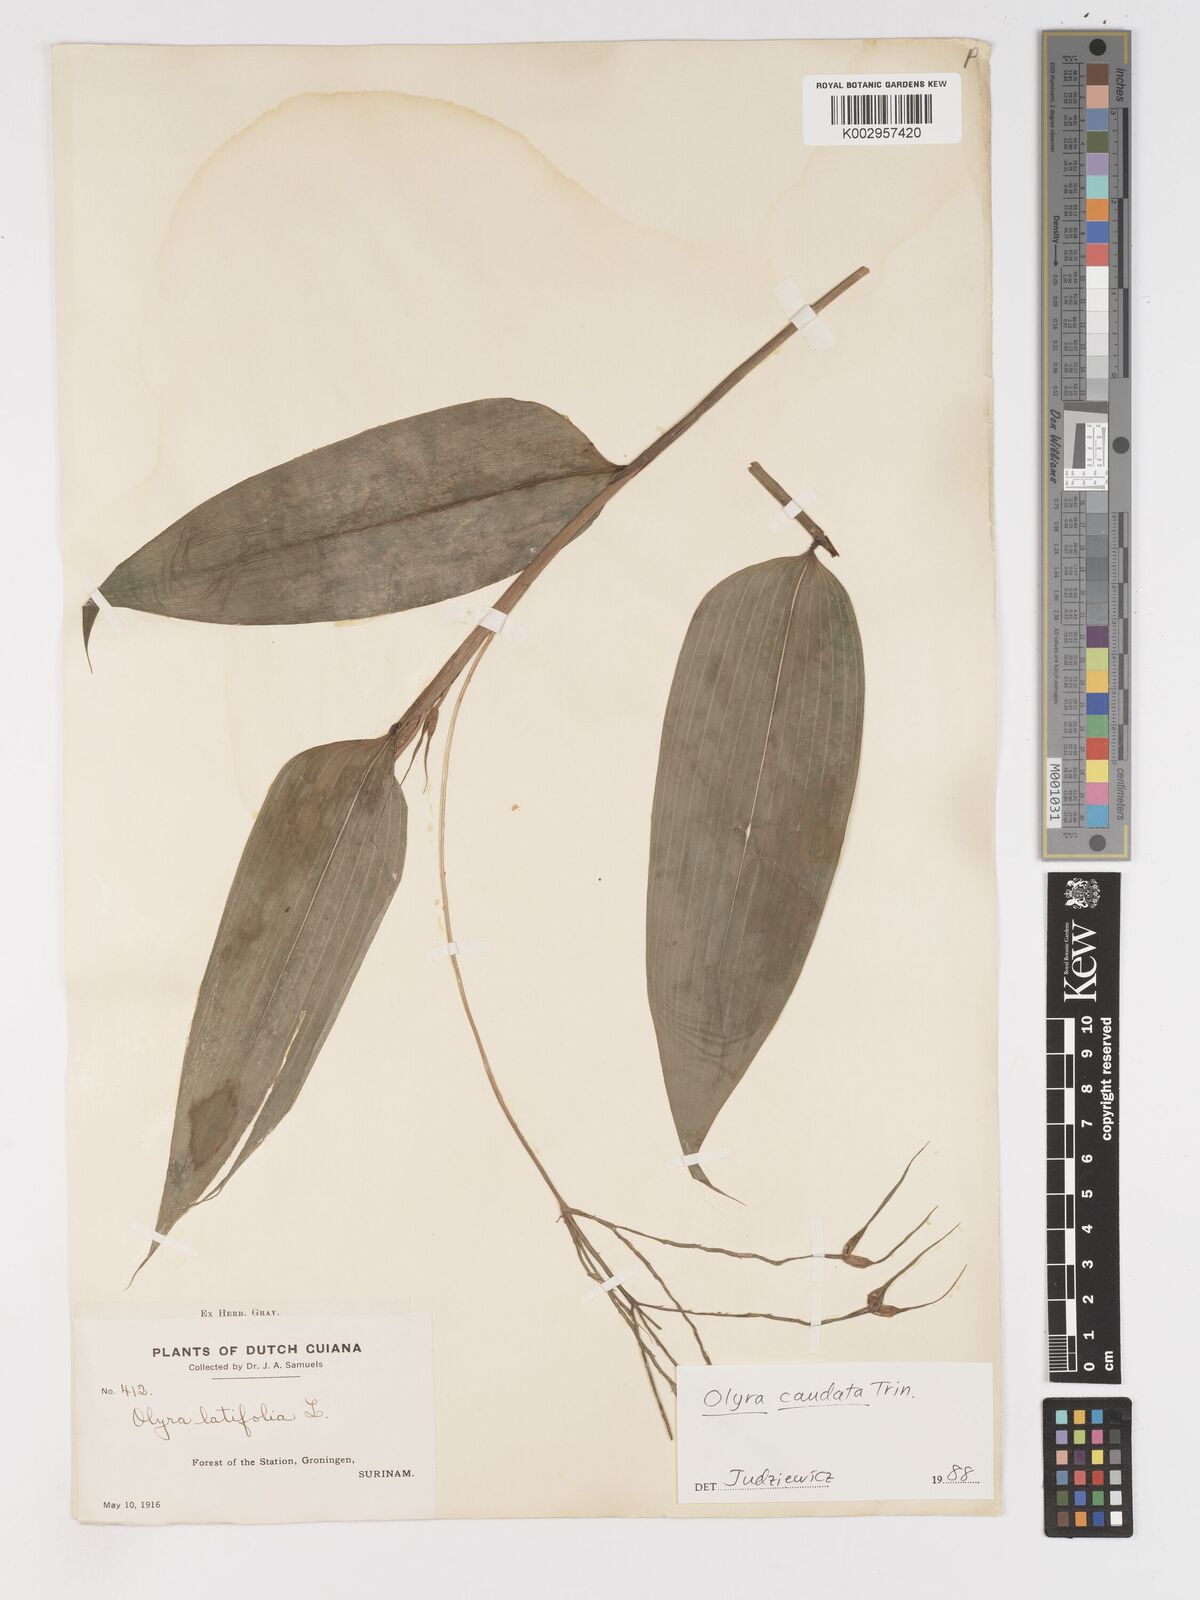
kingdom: Plantae
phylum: Tracheophyta
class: Liliopsida
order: Poales
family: Poaceae
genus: Olyra
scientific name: Olyra caudata
